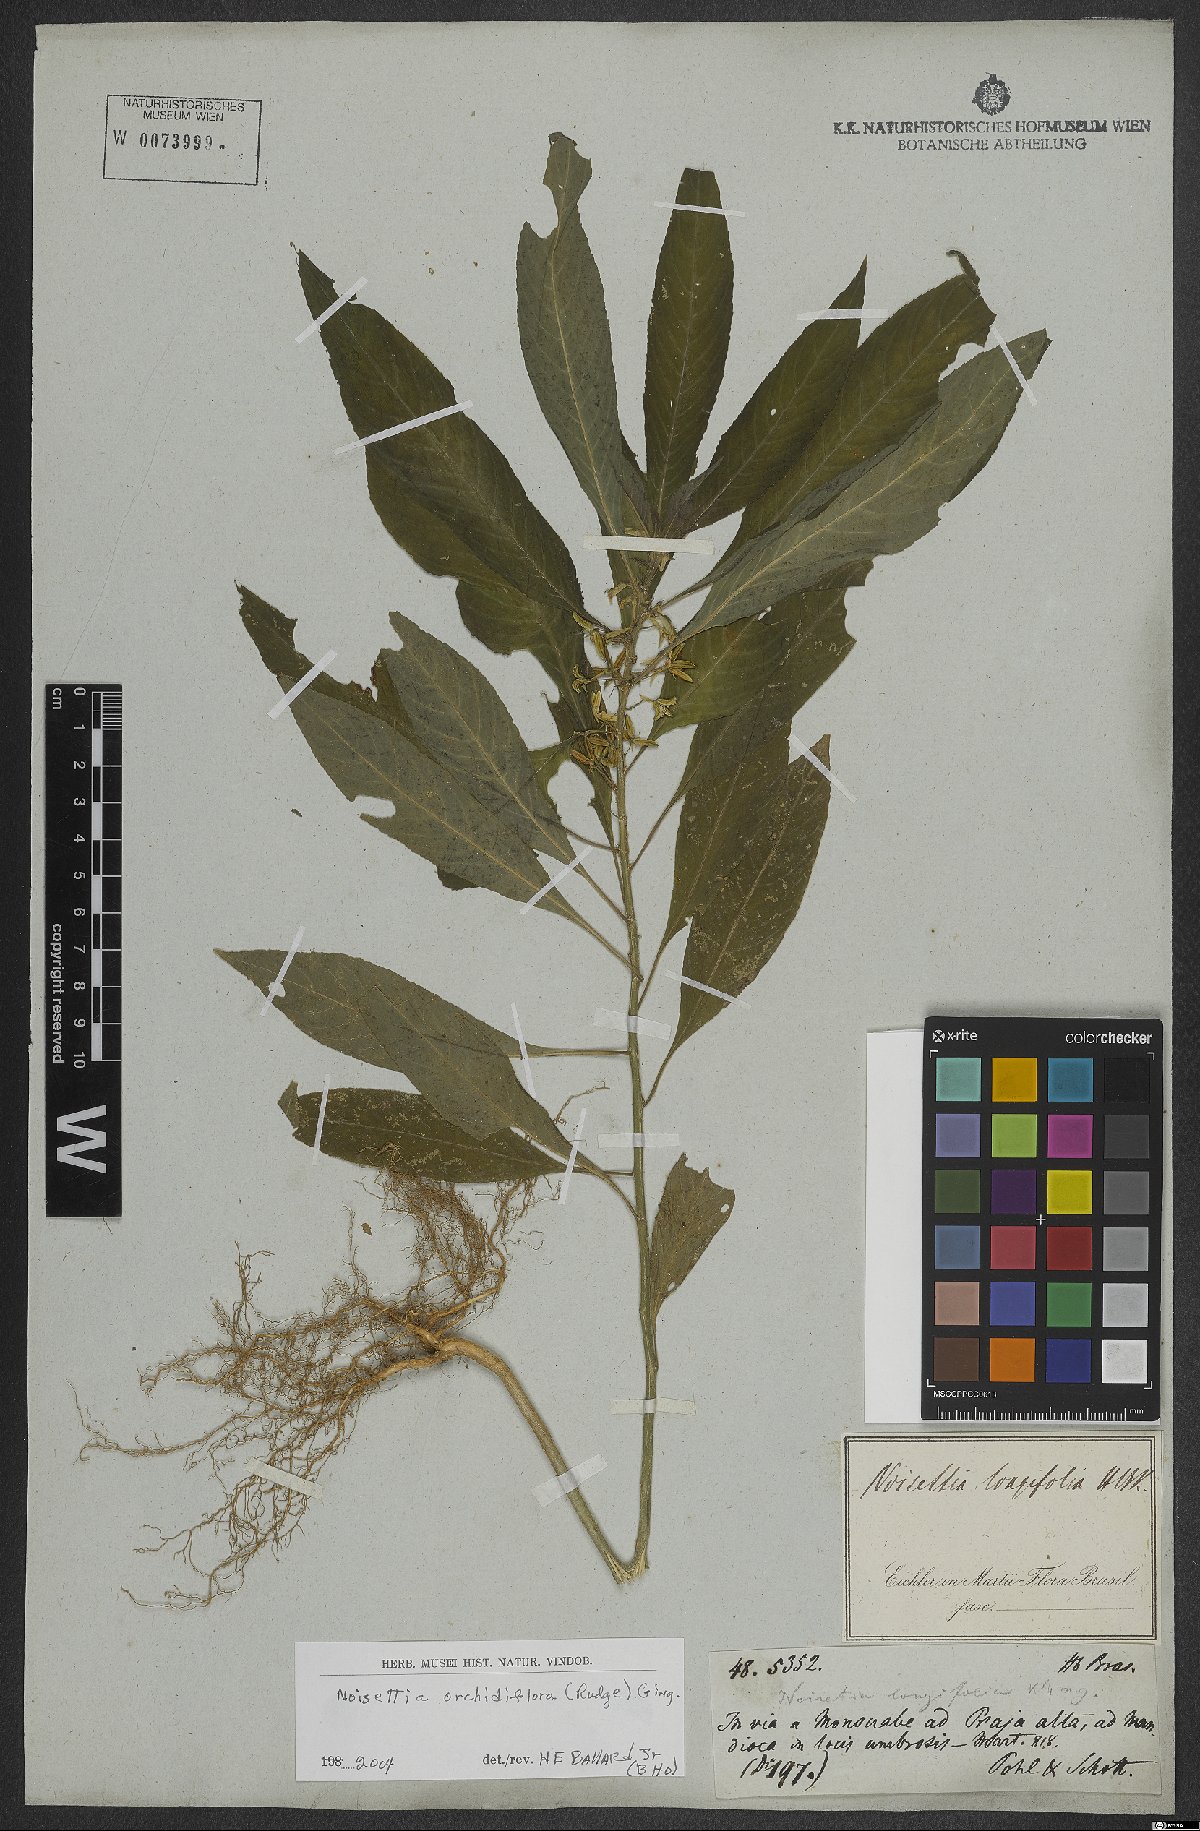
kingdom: Plantae
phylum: Tracheophyta
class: Magnoliopsida
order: Malpighiales
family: Violaceae
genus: Noisettia
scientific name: Noisettia orchidiflora
